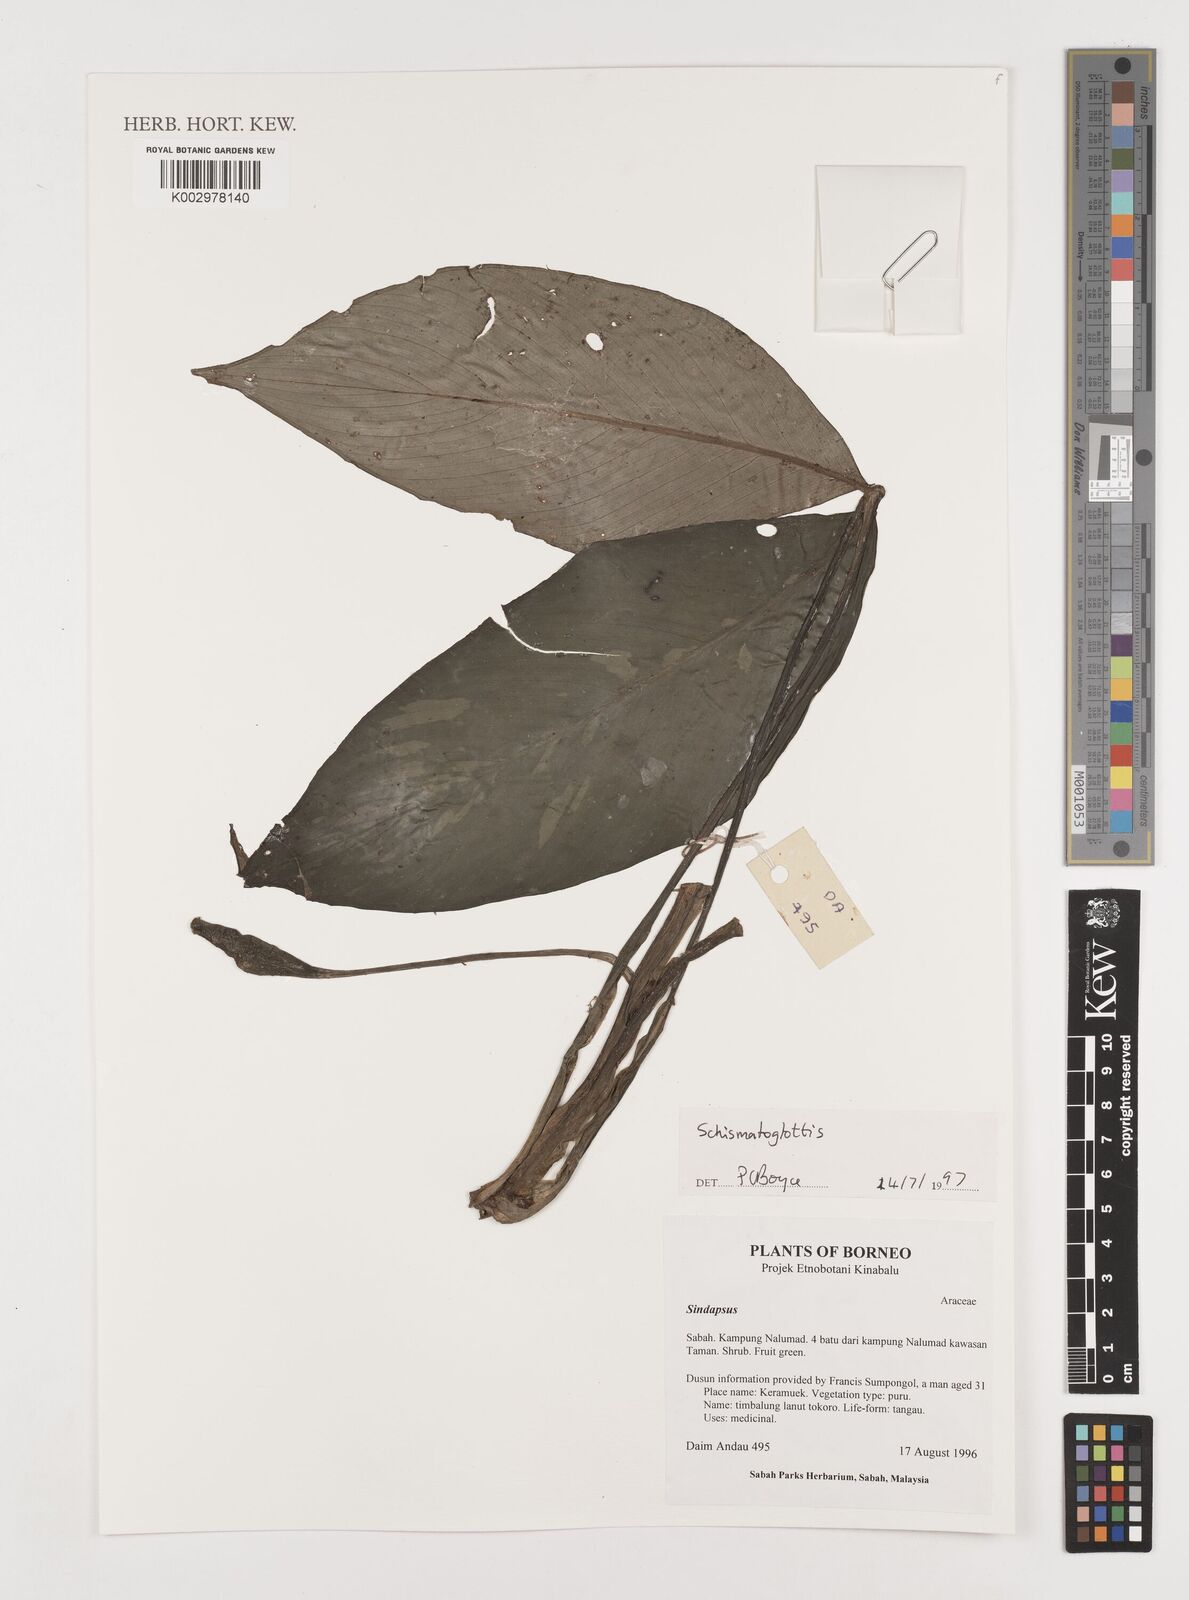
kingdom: Plantae
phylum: Tracheophyta
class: Liliopsida
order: Alismatales
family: Araceae
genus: Schismatoglottis
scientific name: Schismatoglottis
